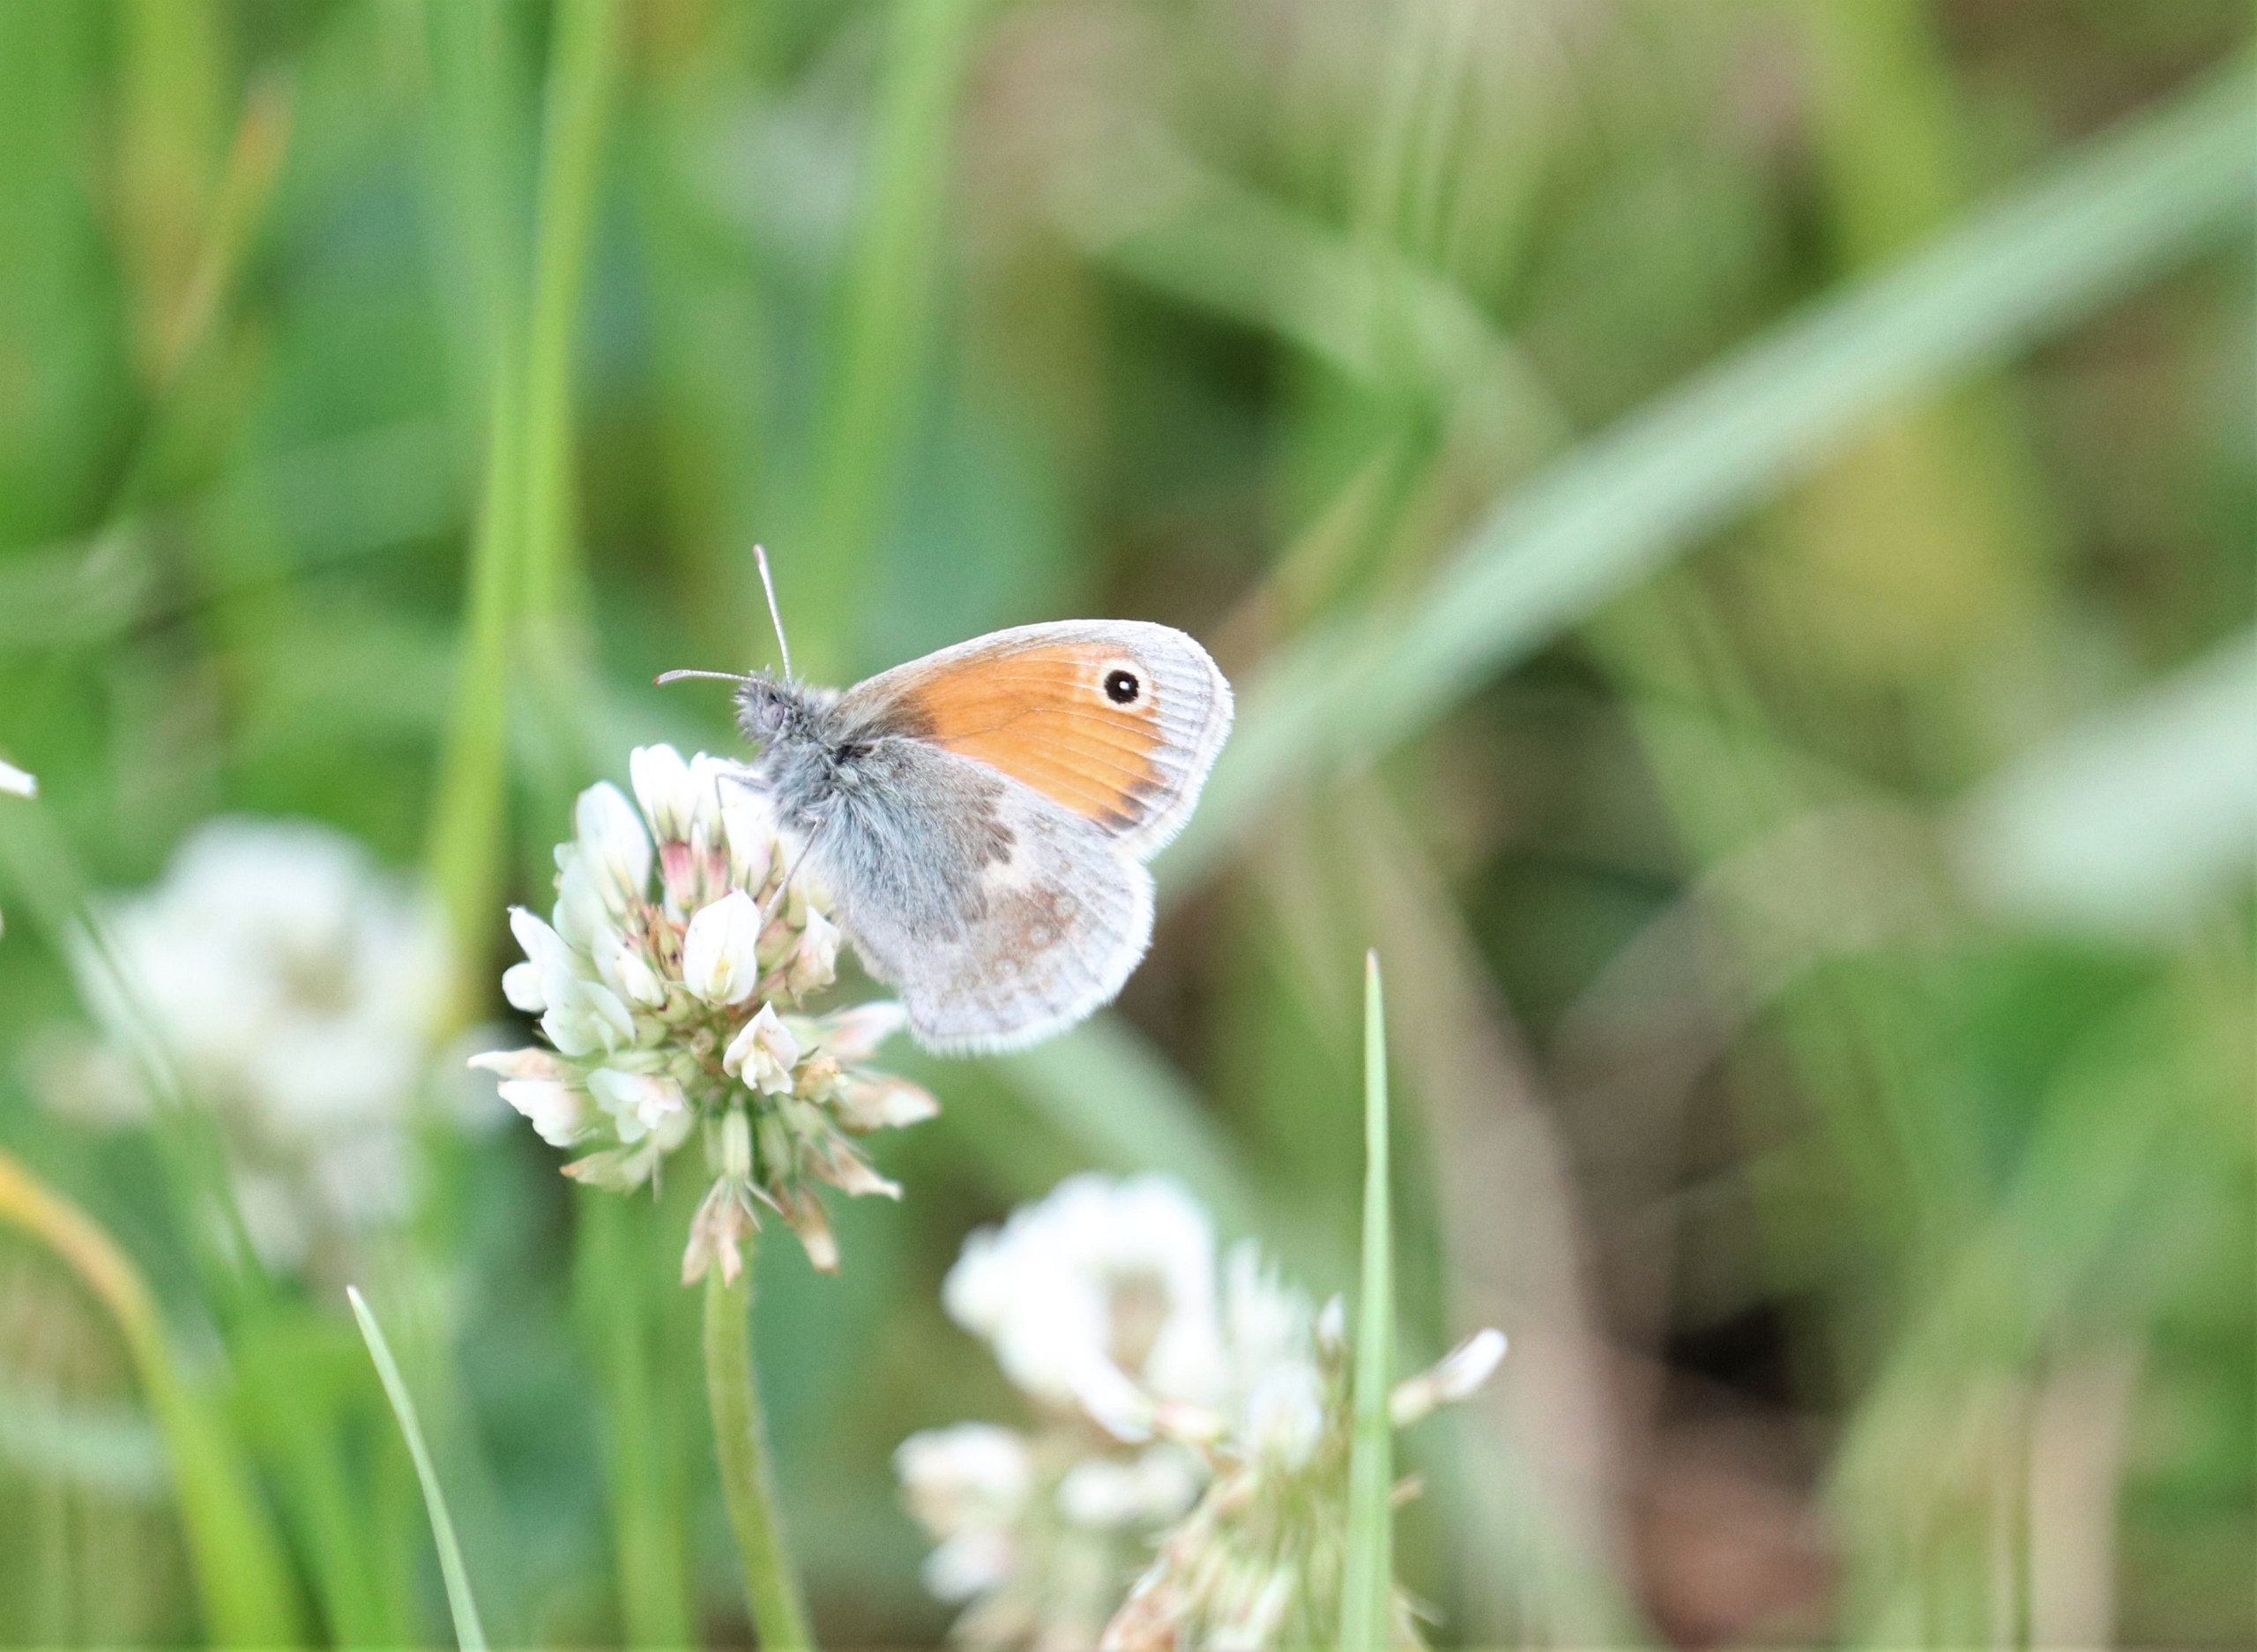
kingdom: Animalia
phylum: Arthropoda
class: Insecta
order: Lepidoptera
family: Nymphalidae
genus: Coenonympha
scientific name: Coenonympha pamphilus
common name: Okkergul randøje
